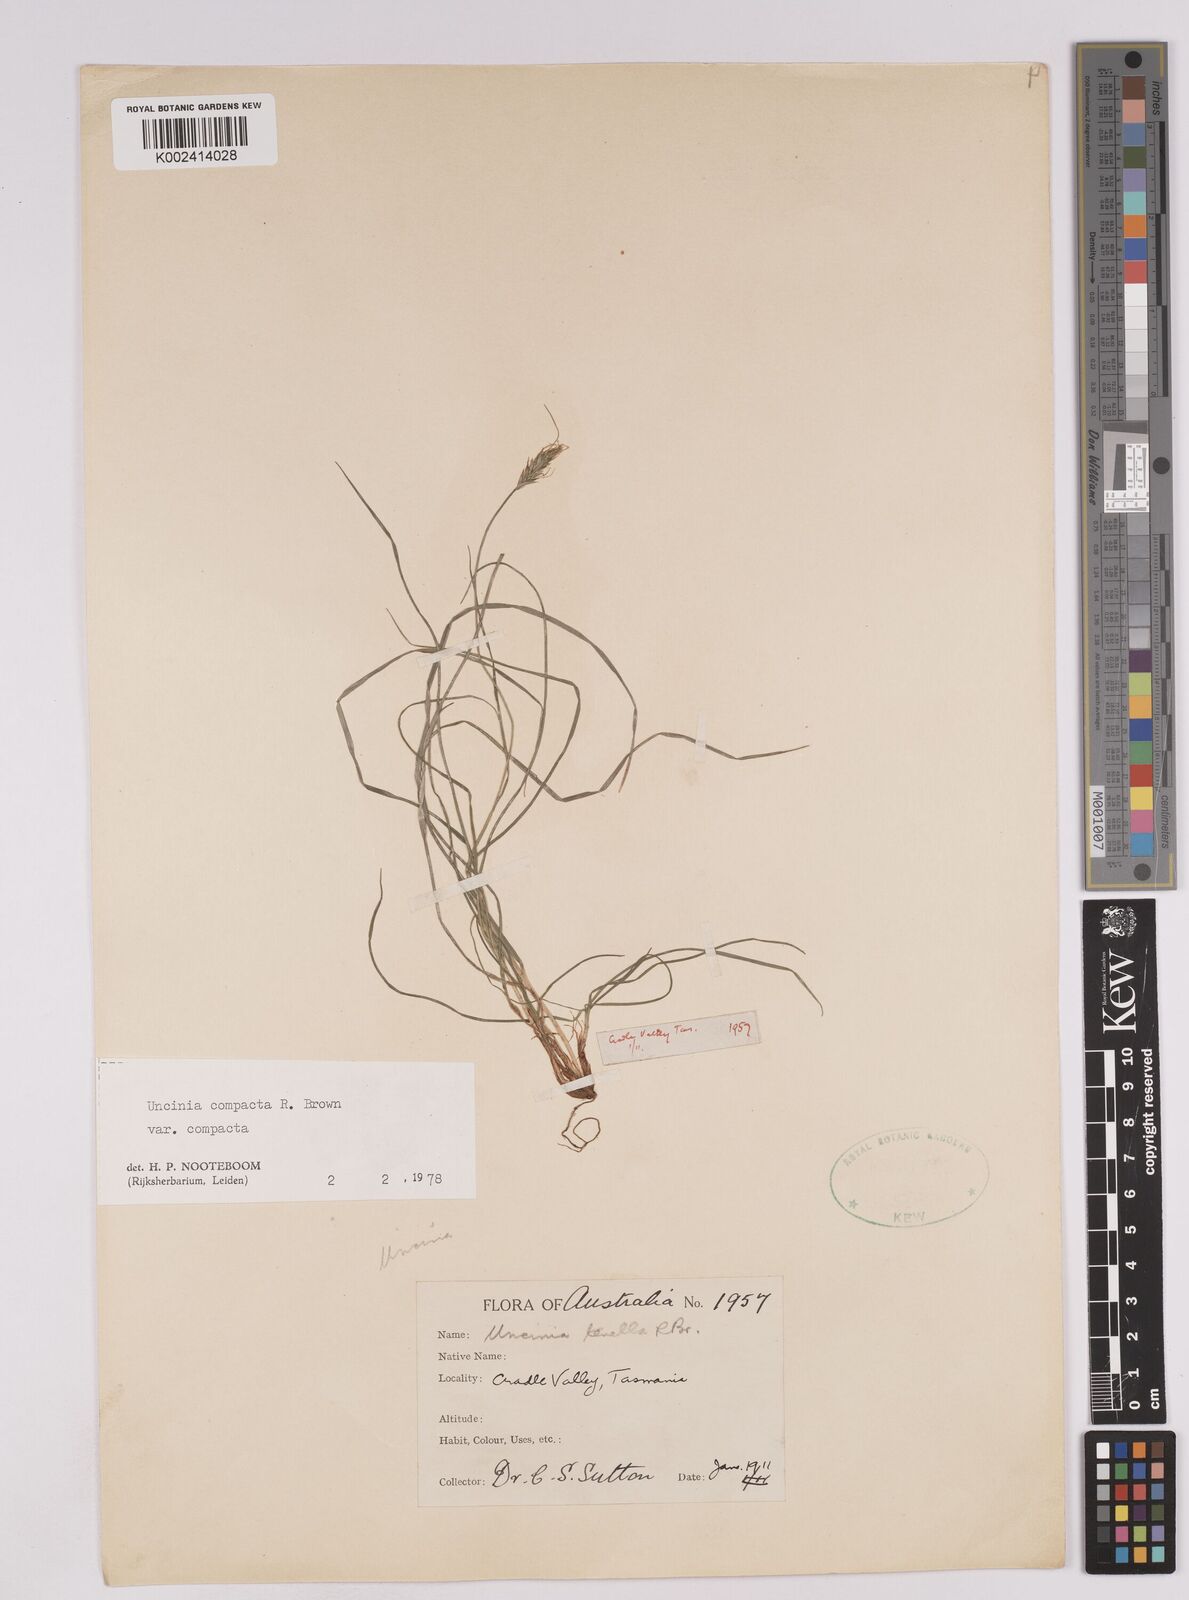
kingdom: Plantae
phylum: Tracheophyta
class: Liliopsida
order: Poales
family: Cyperaceae
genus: Carex
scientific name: Carex austrocompacta
